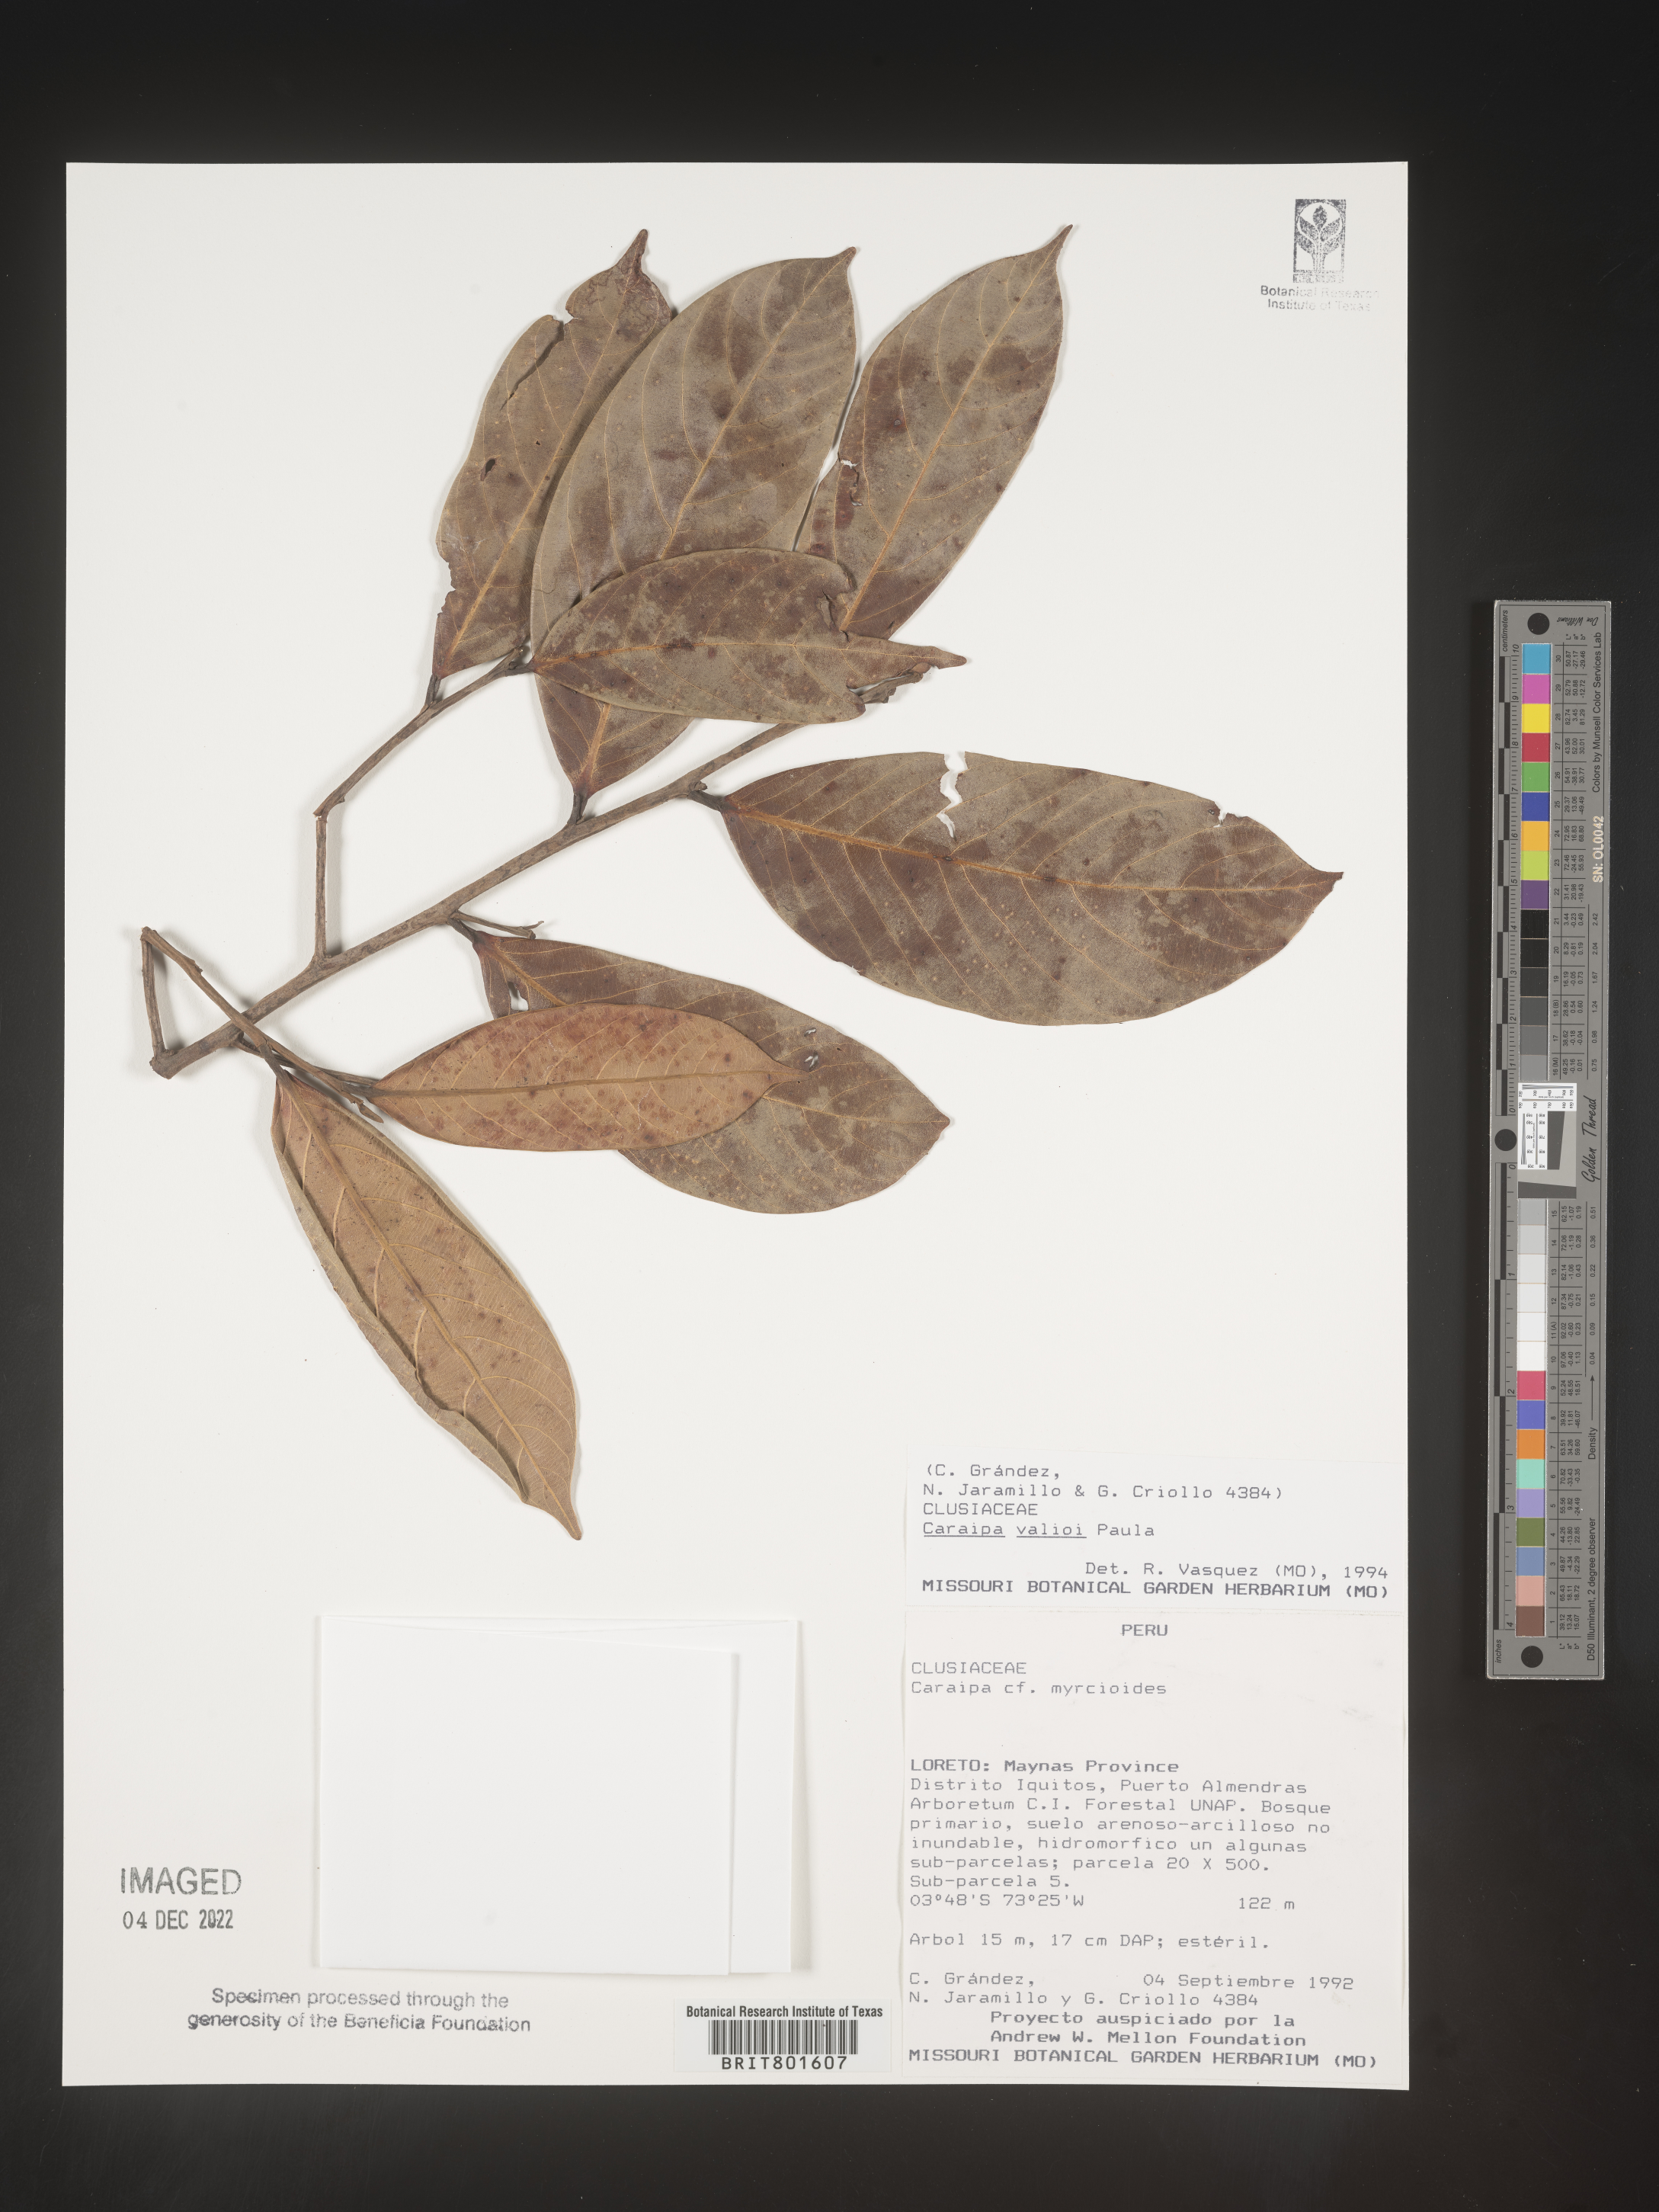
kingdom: Plantae
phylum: Tracheophyta
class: Magnoliopsida
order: Malpighiales
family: Calophyllaceae
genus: Caraipa
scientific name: Caraipa valioi
